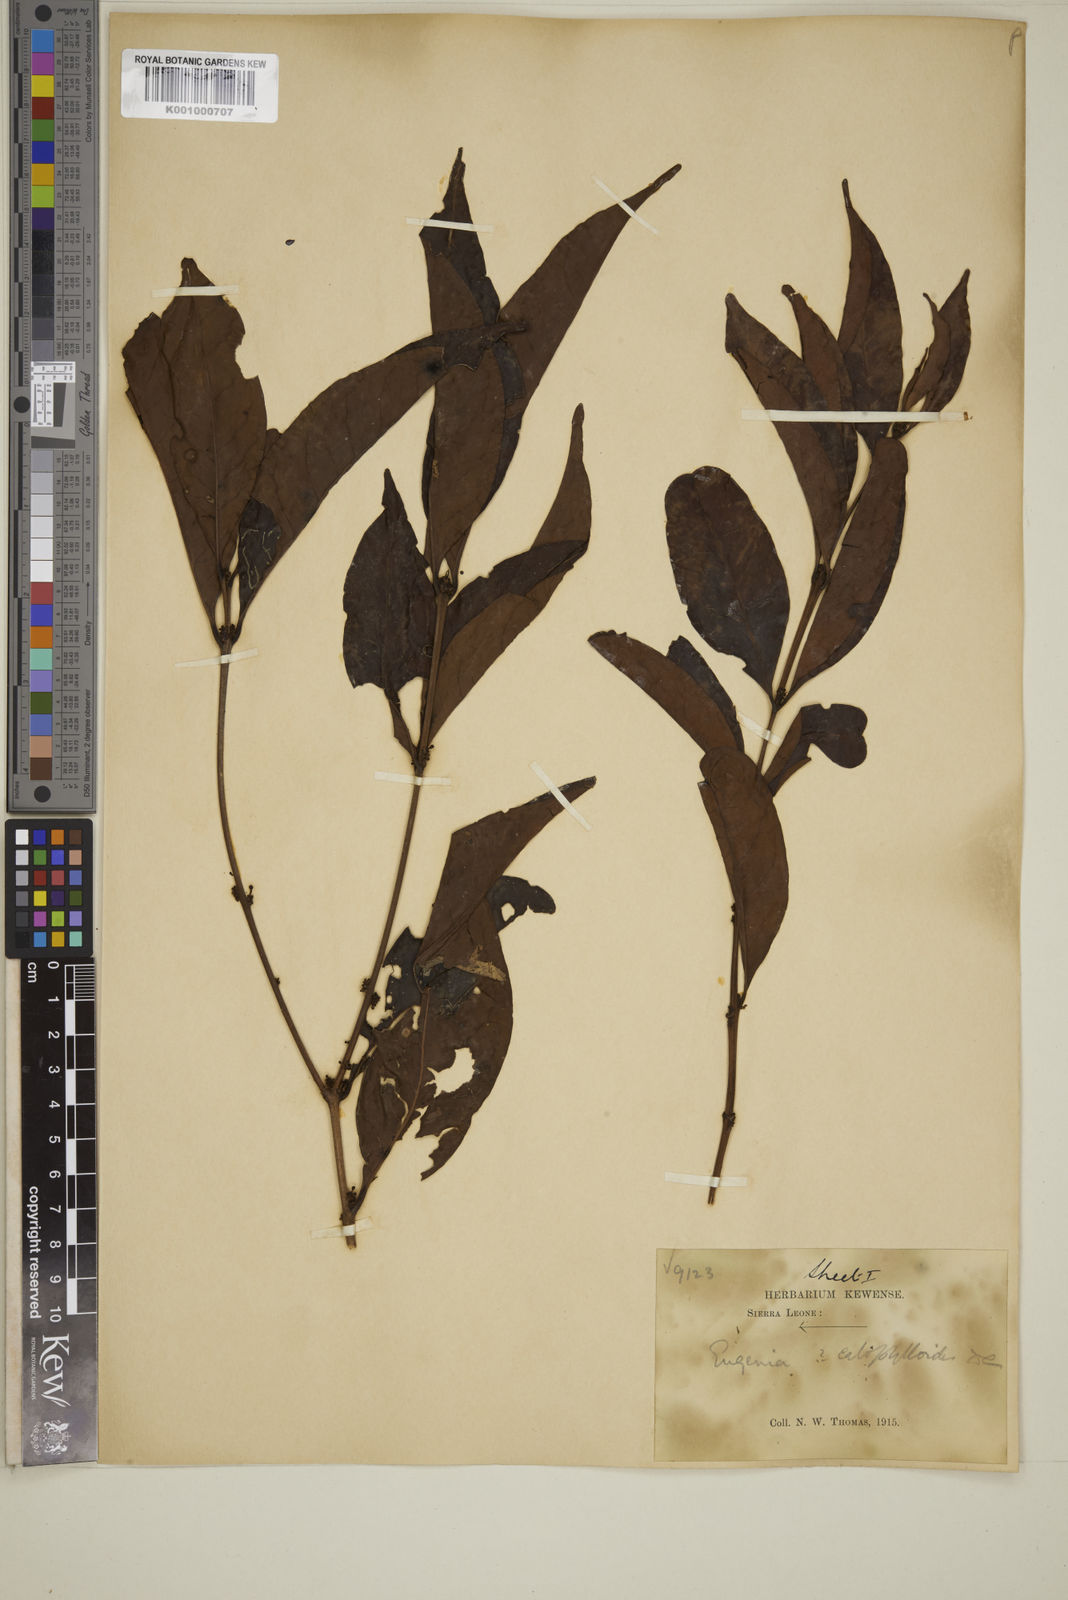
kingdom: Plantae
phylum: Tracheophyta
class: Magnoliopsida
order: Myrtales
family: Myrtaceae
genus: Eugenia
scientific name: Eugenia calophylloides
